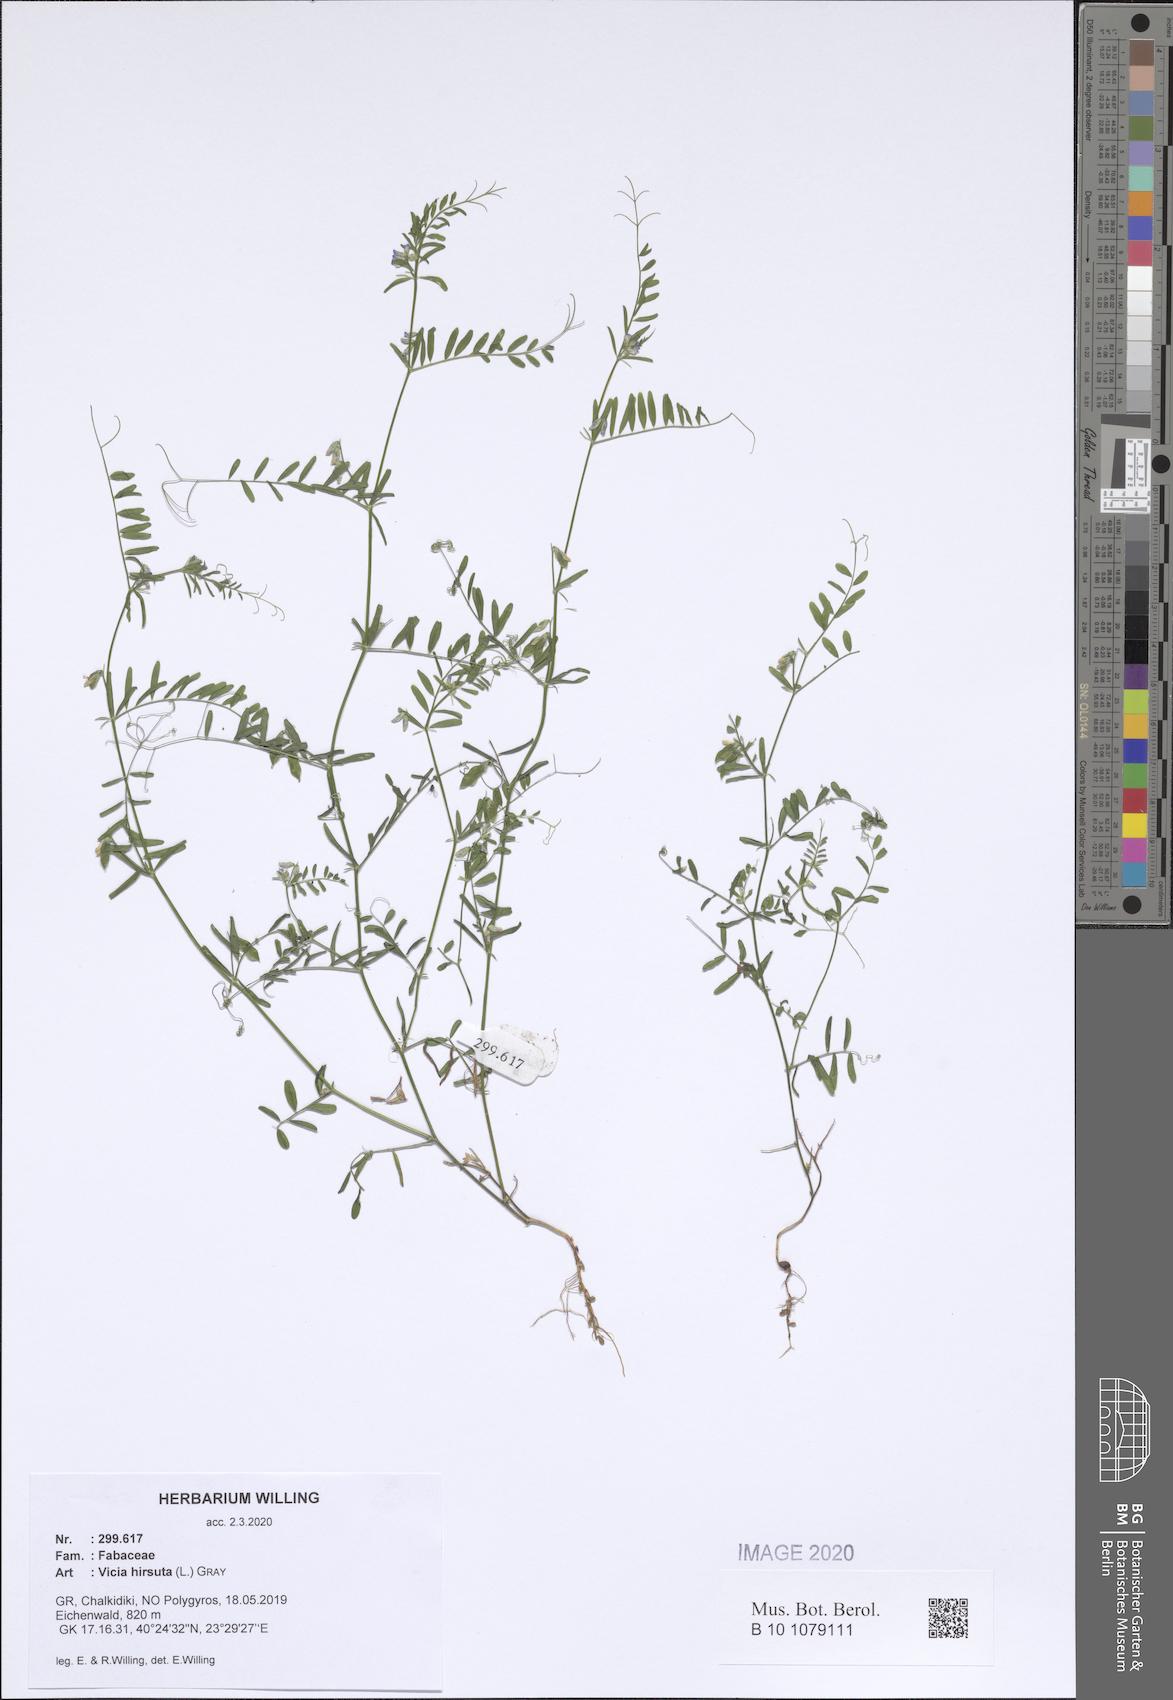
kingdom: Plantae
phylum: Tracheophyta
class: Magnoliopsida
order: Fabales
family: Fabaceae
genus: Vicia
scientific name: Vicia hirsuta
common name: Tiny vetch
